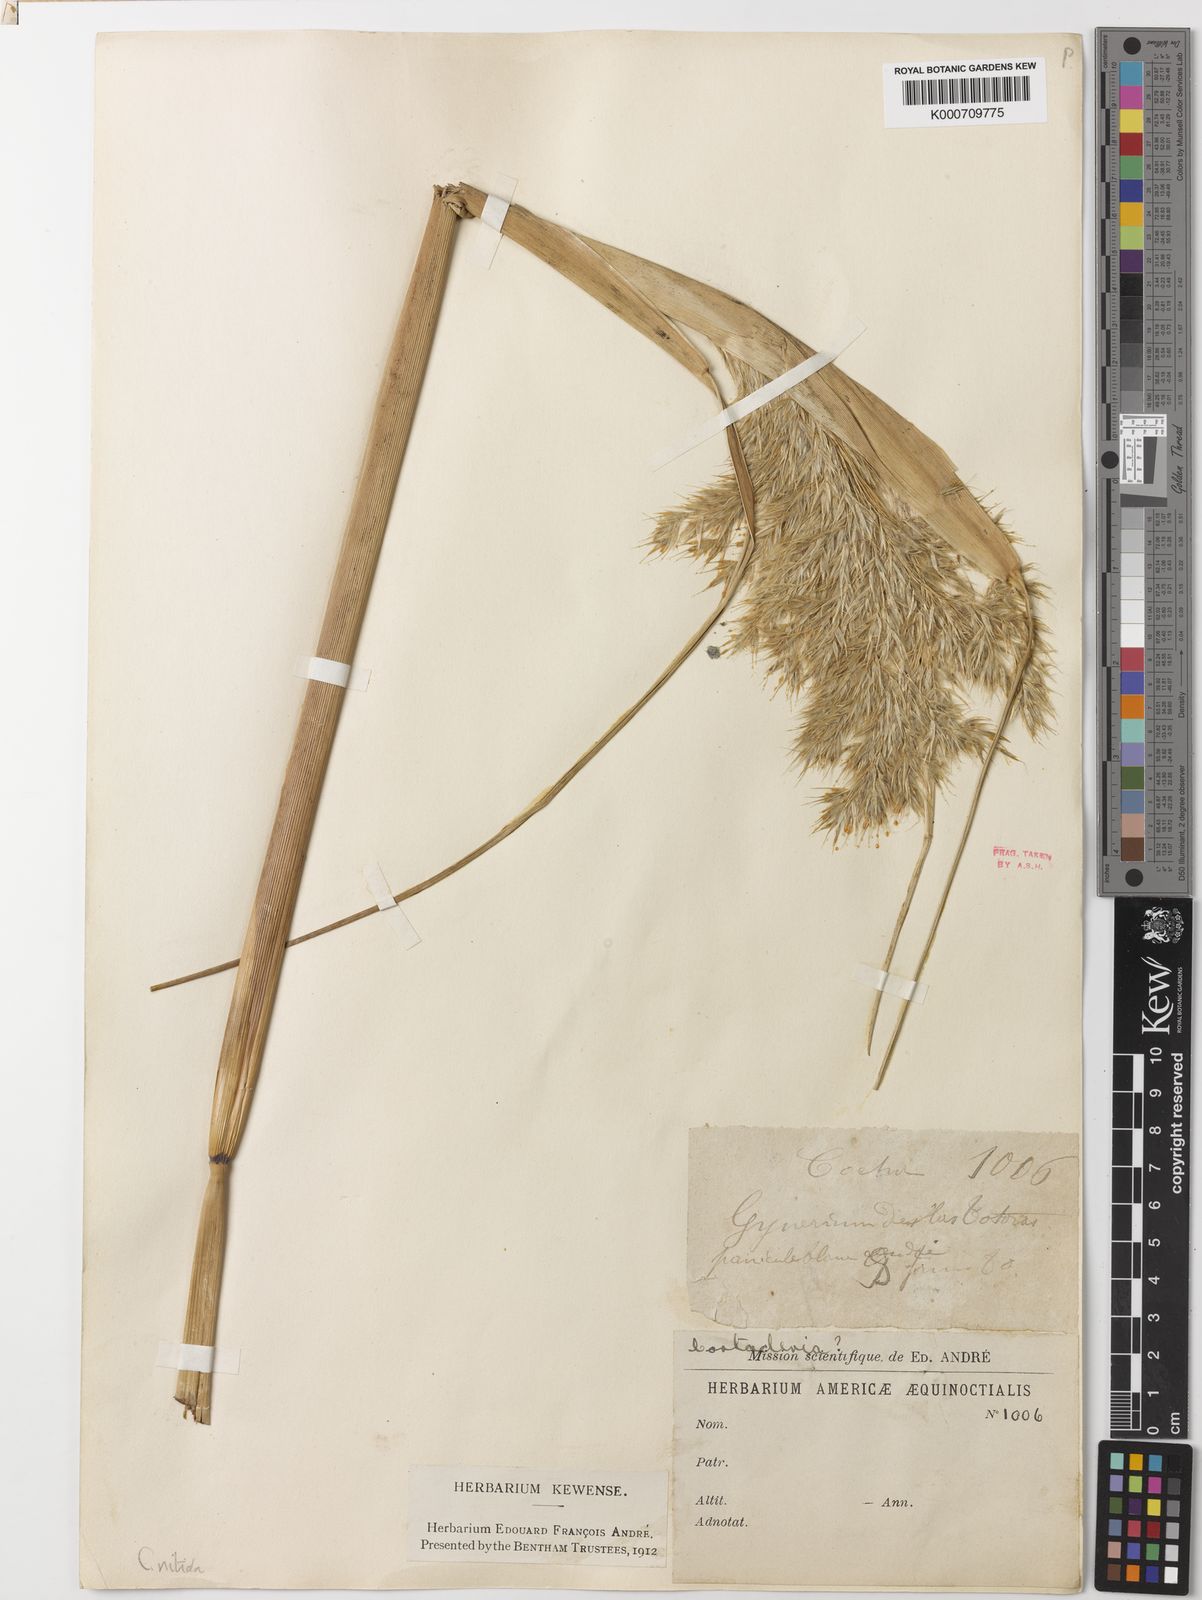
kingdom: Plantae
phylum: Tracheophyta
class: Liliopsida
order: Poales
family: Poaceae
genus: Cortaderia
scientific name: Cortaderia nitida
